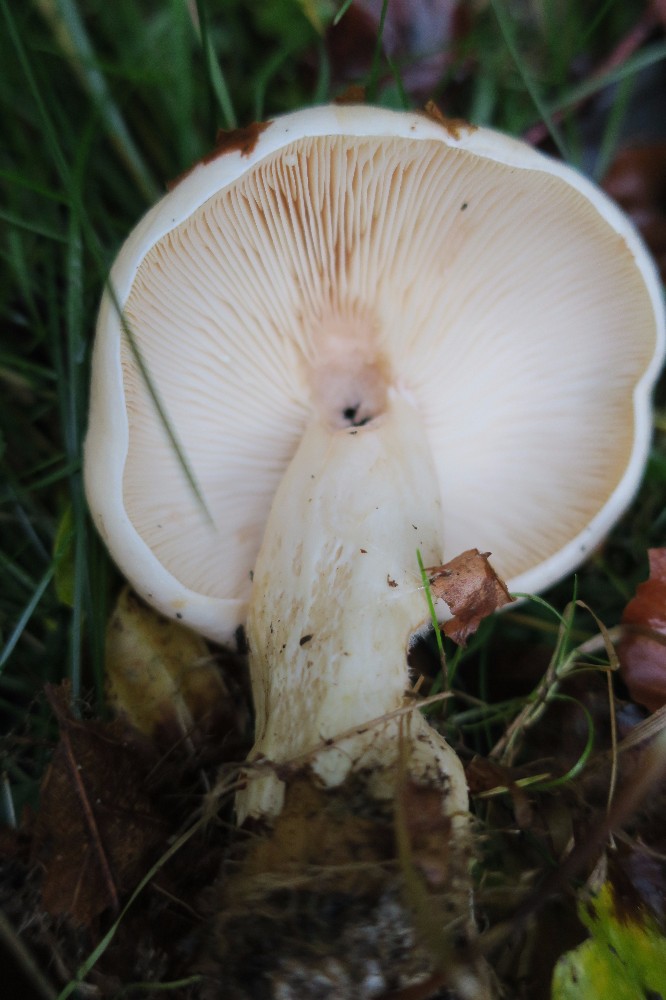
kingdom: Fungi
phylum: Basidiomycota
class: Agaricomycetes
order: Russulales
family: Russulaceae
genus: Lactarius
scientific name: Lactarius pallidus
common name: bleg mælkehat
